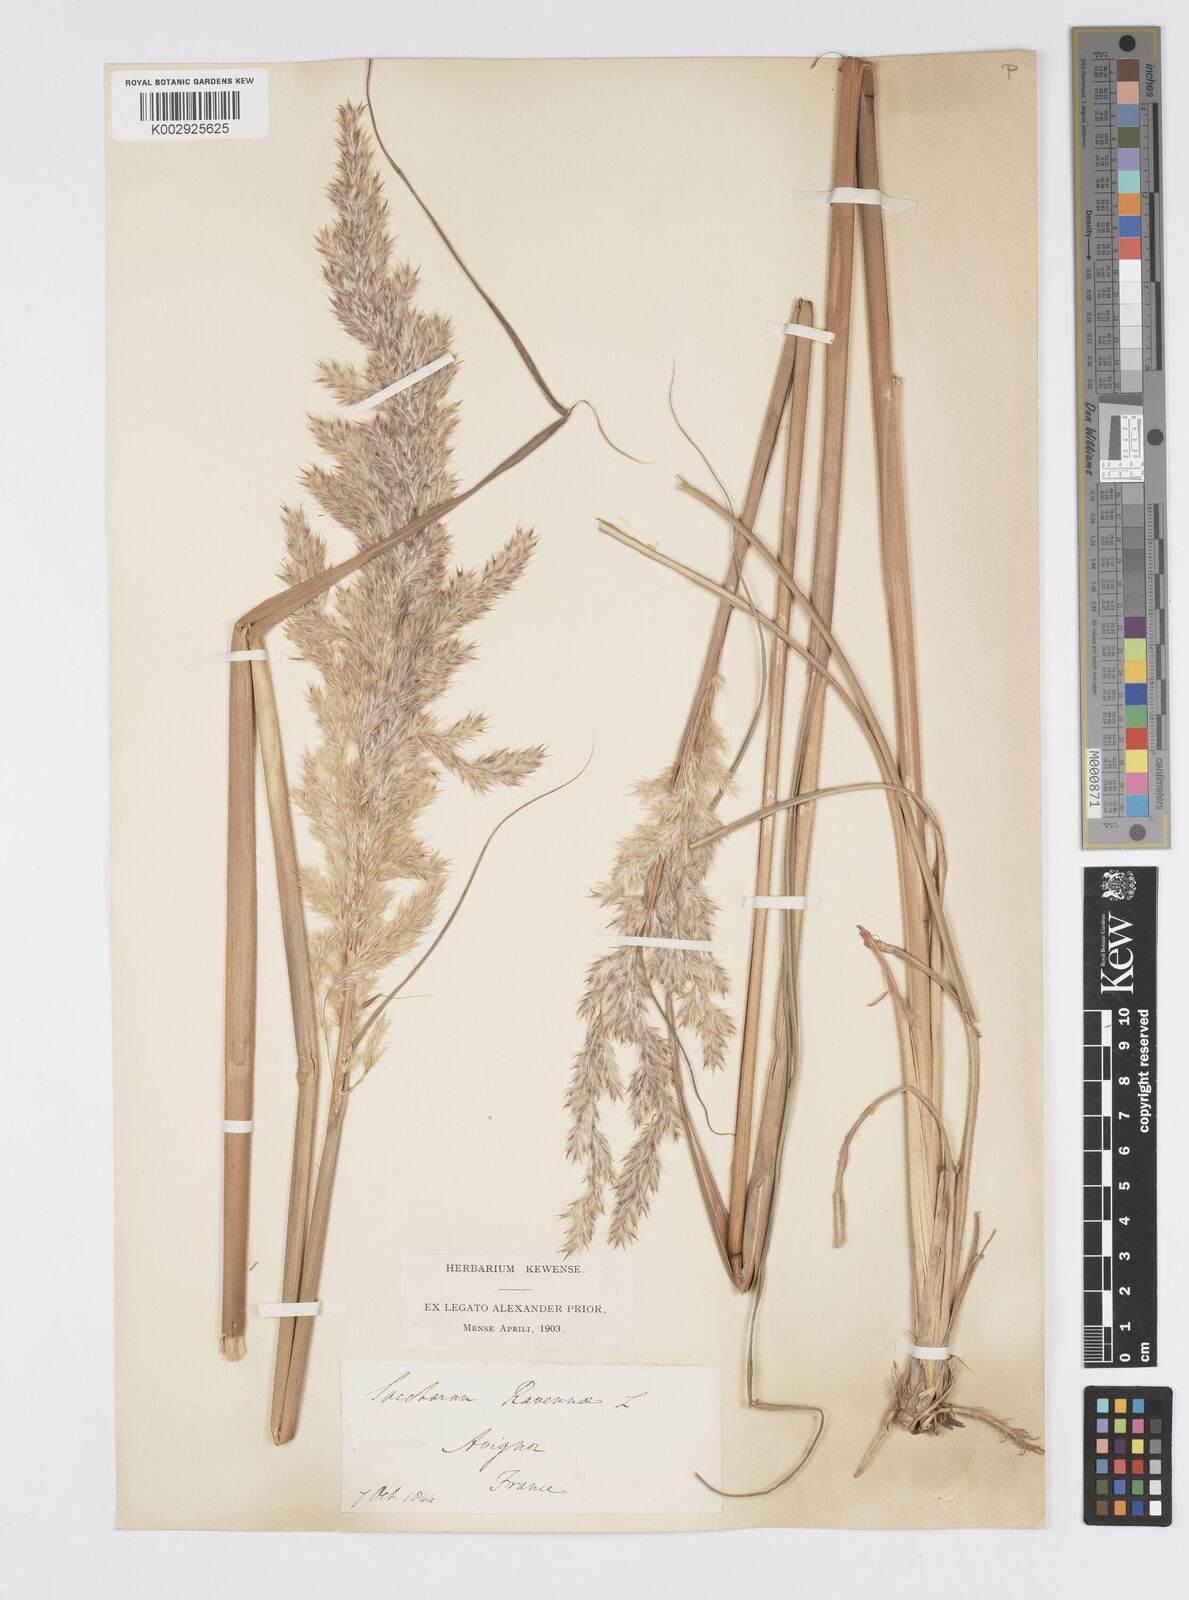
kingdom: Plantae
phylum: Tracheophyta
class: Liliopsida
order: Poales
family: Poaceae
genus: Tripidium
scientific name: Tripidium ravennae
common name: Ravenna grass
